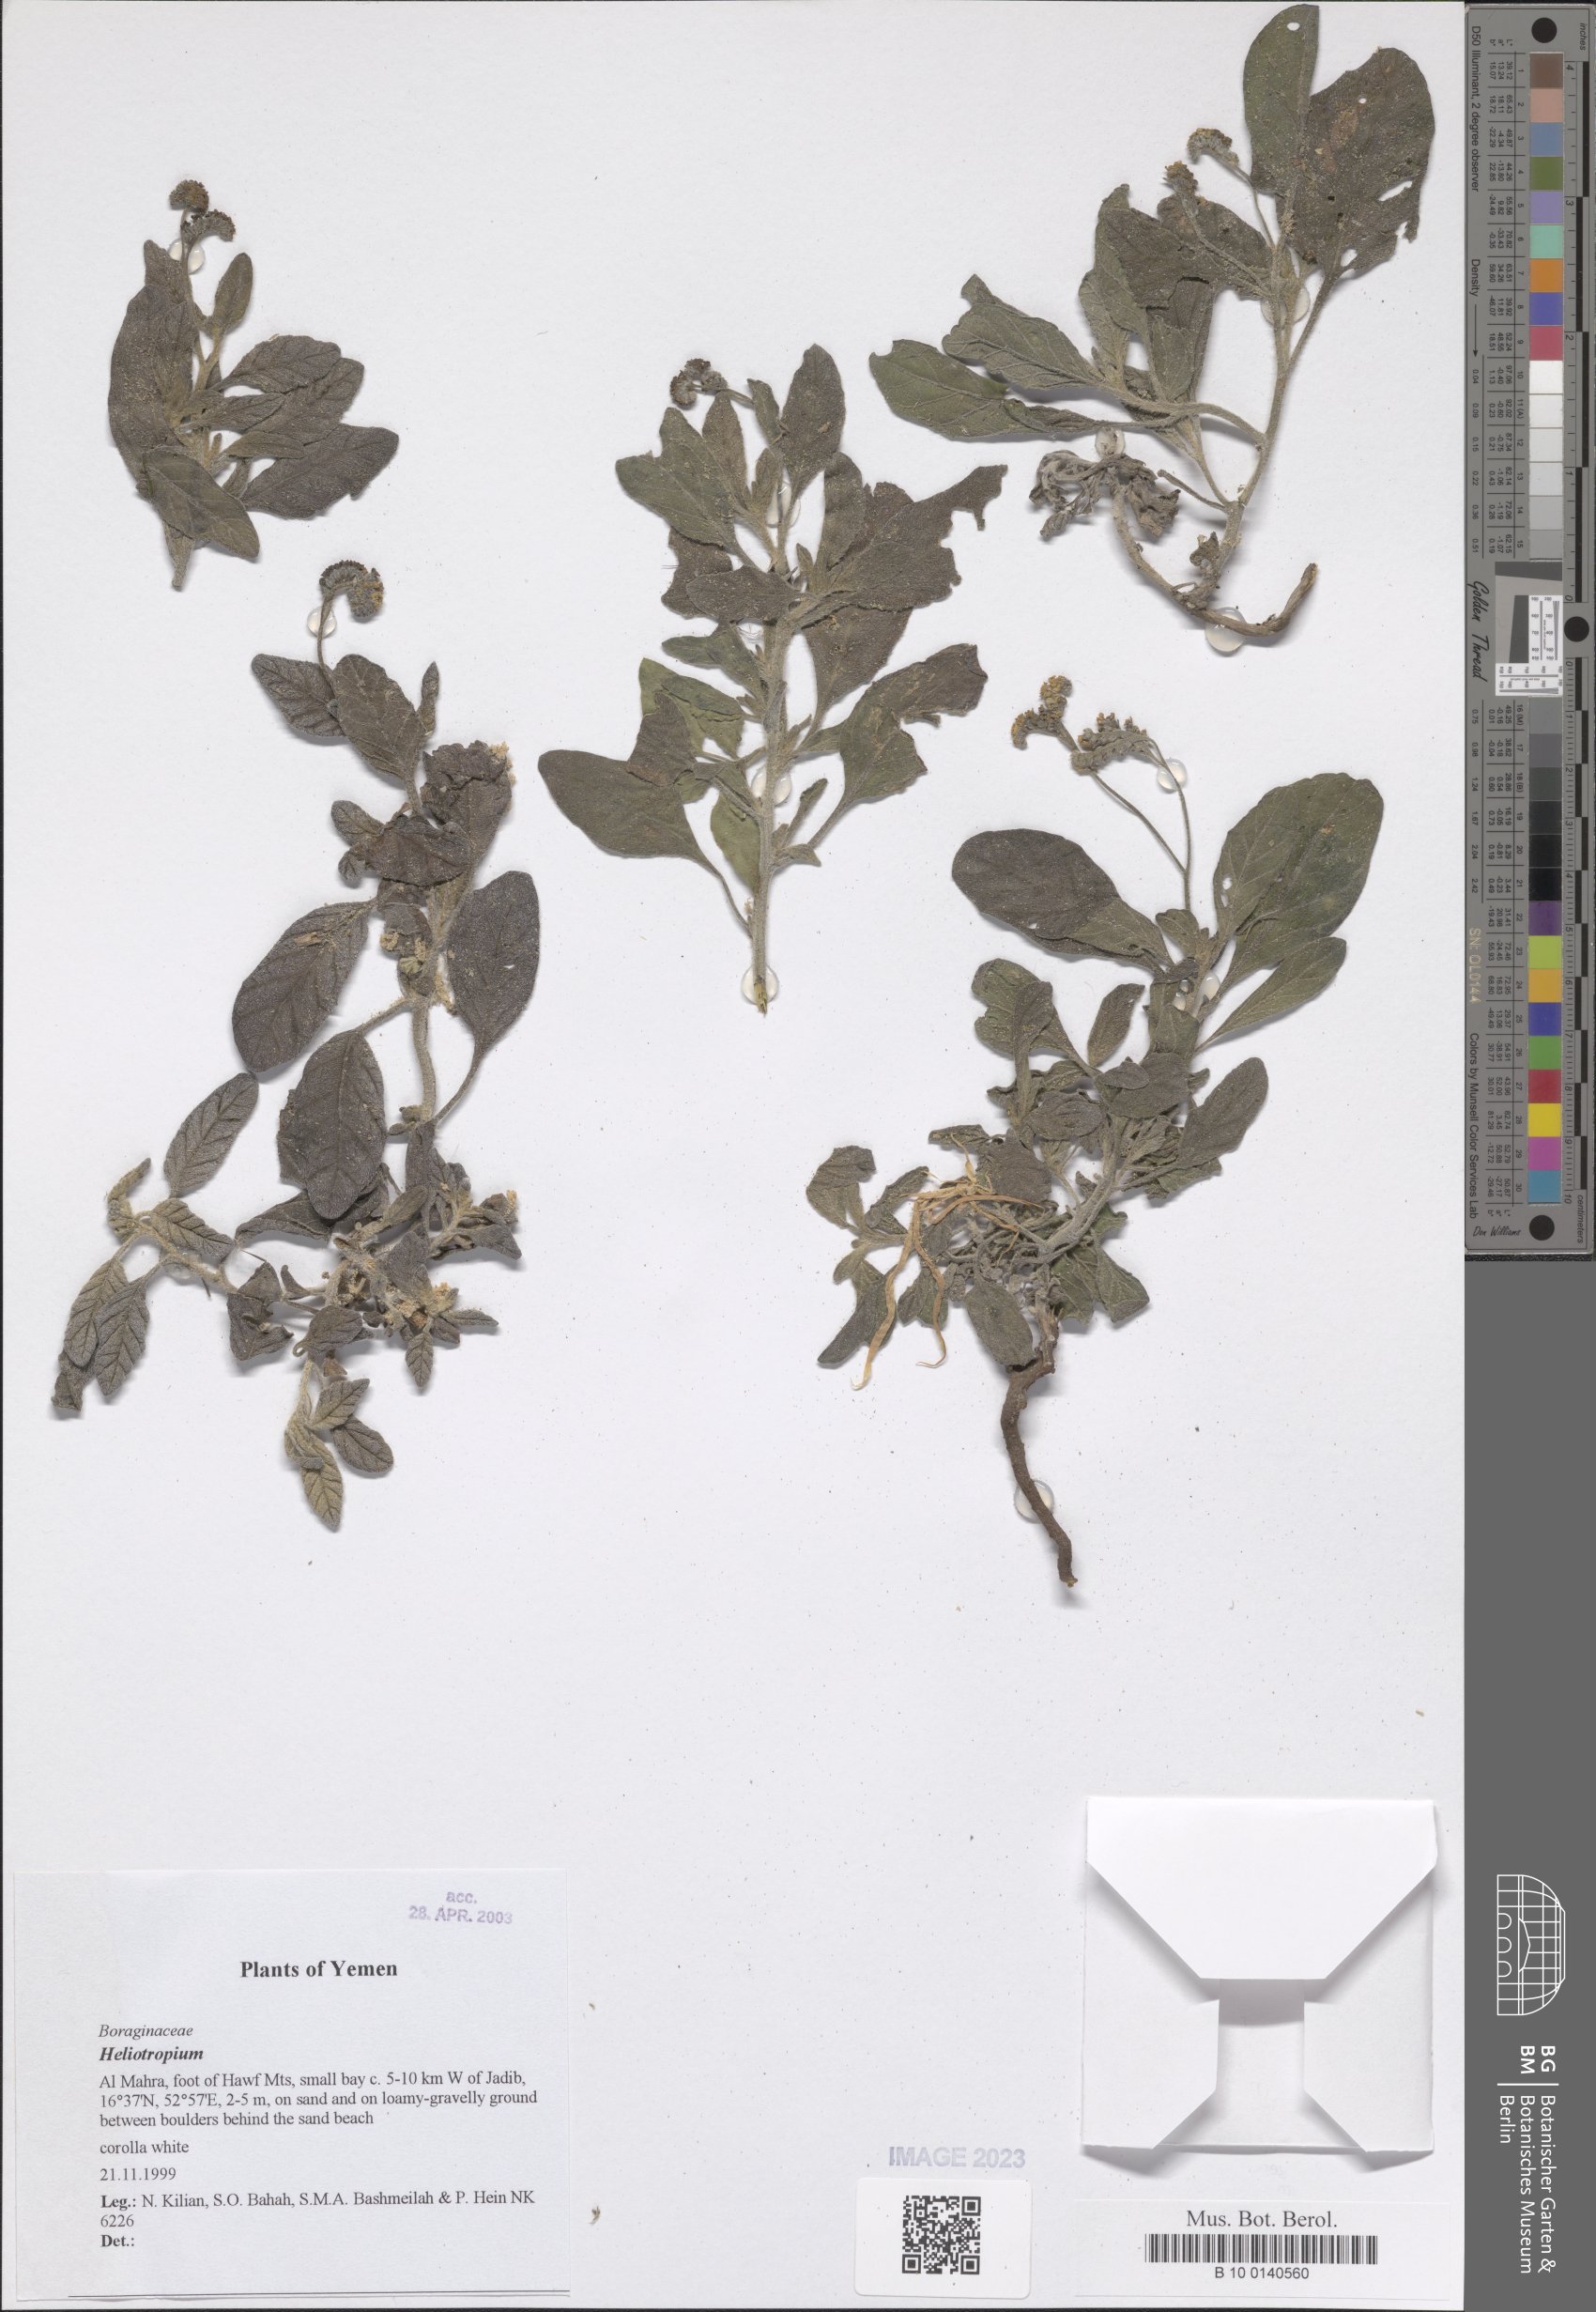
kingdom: Plantae
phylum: Tracheophyta
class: Magnoliopsida
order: Boraginales
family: Heliotropiaceae
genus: Heliotropium
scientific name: Heliotropium
